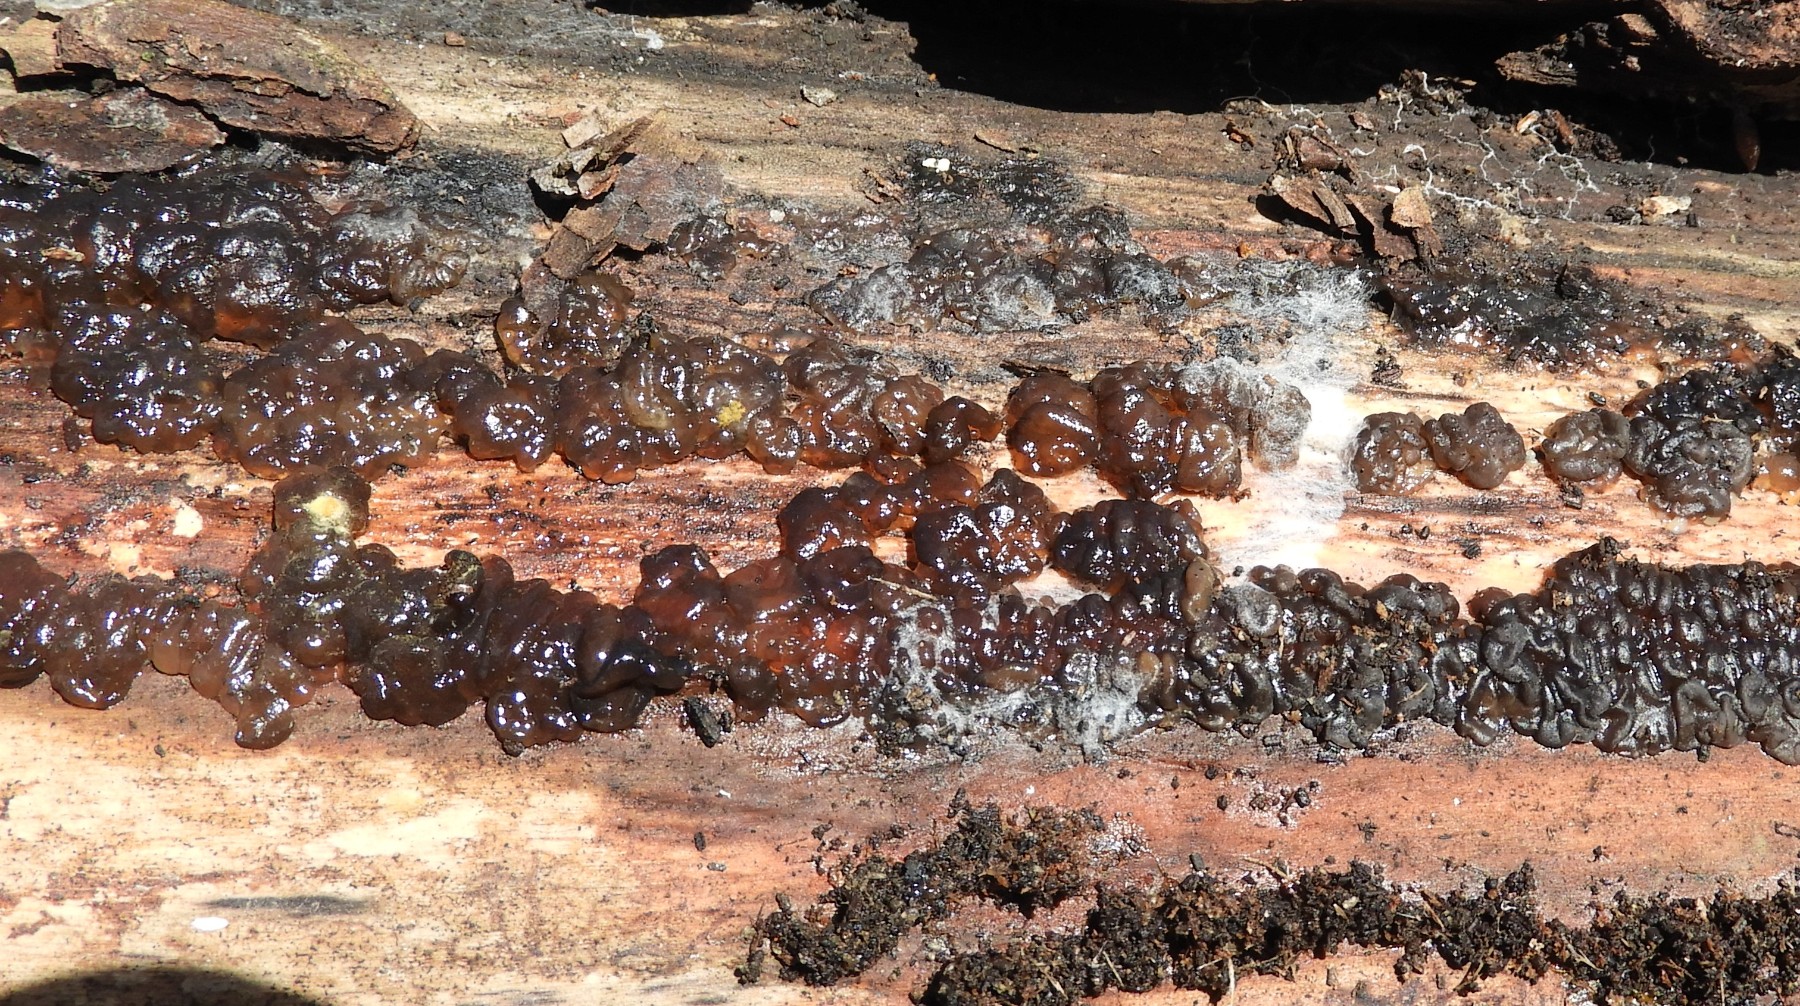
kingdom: Fungi
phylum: Basidiomycota
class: Agaricomycetes
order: Auriculariales
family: Auriculariaceae
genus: Exidia
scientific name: Exidia nigricans
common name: almindelig bævretop
